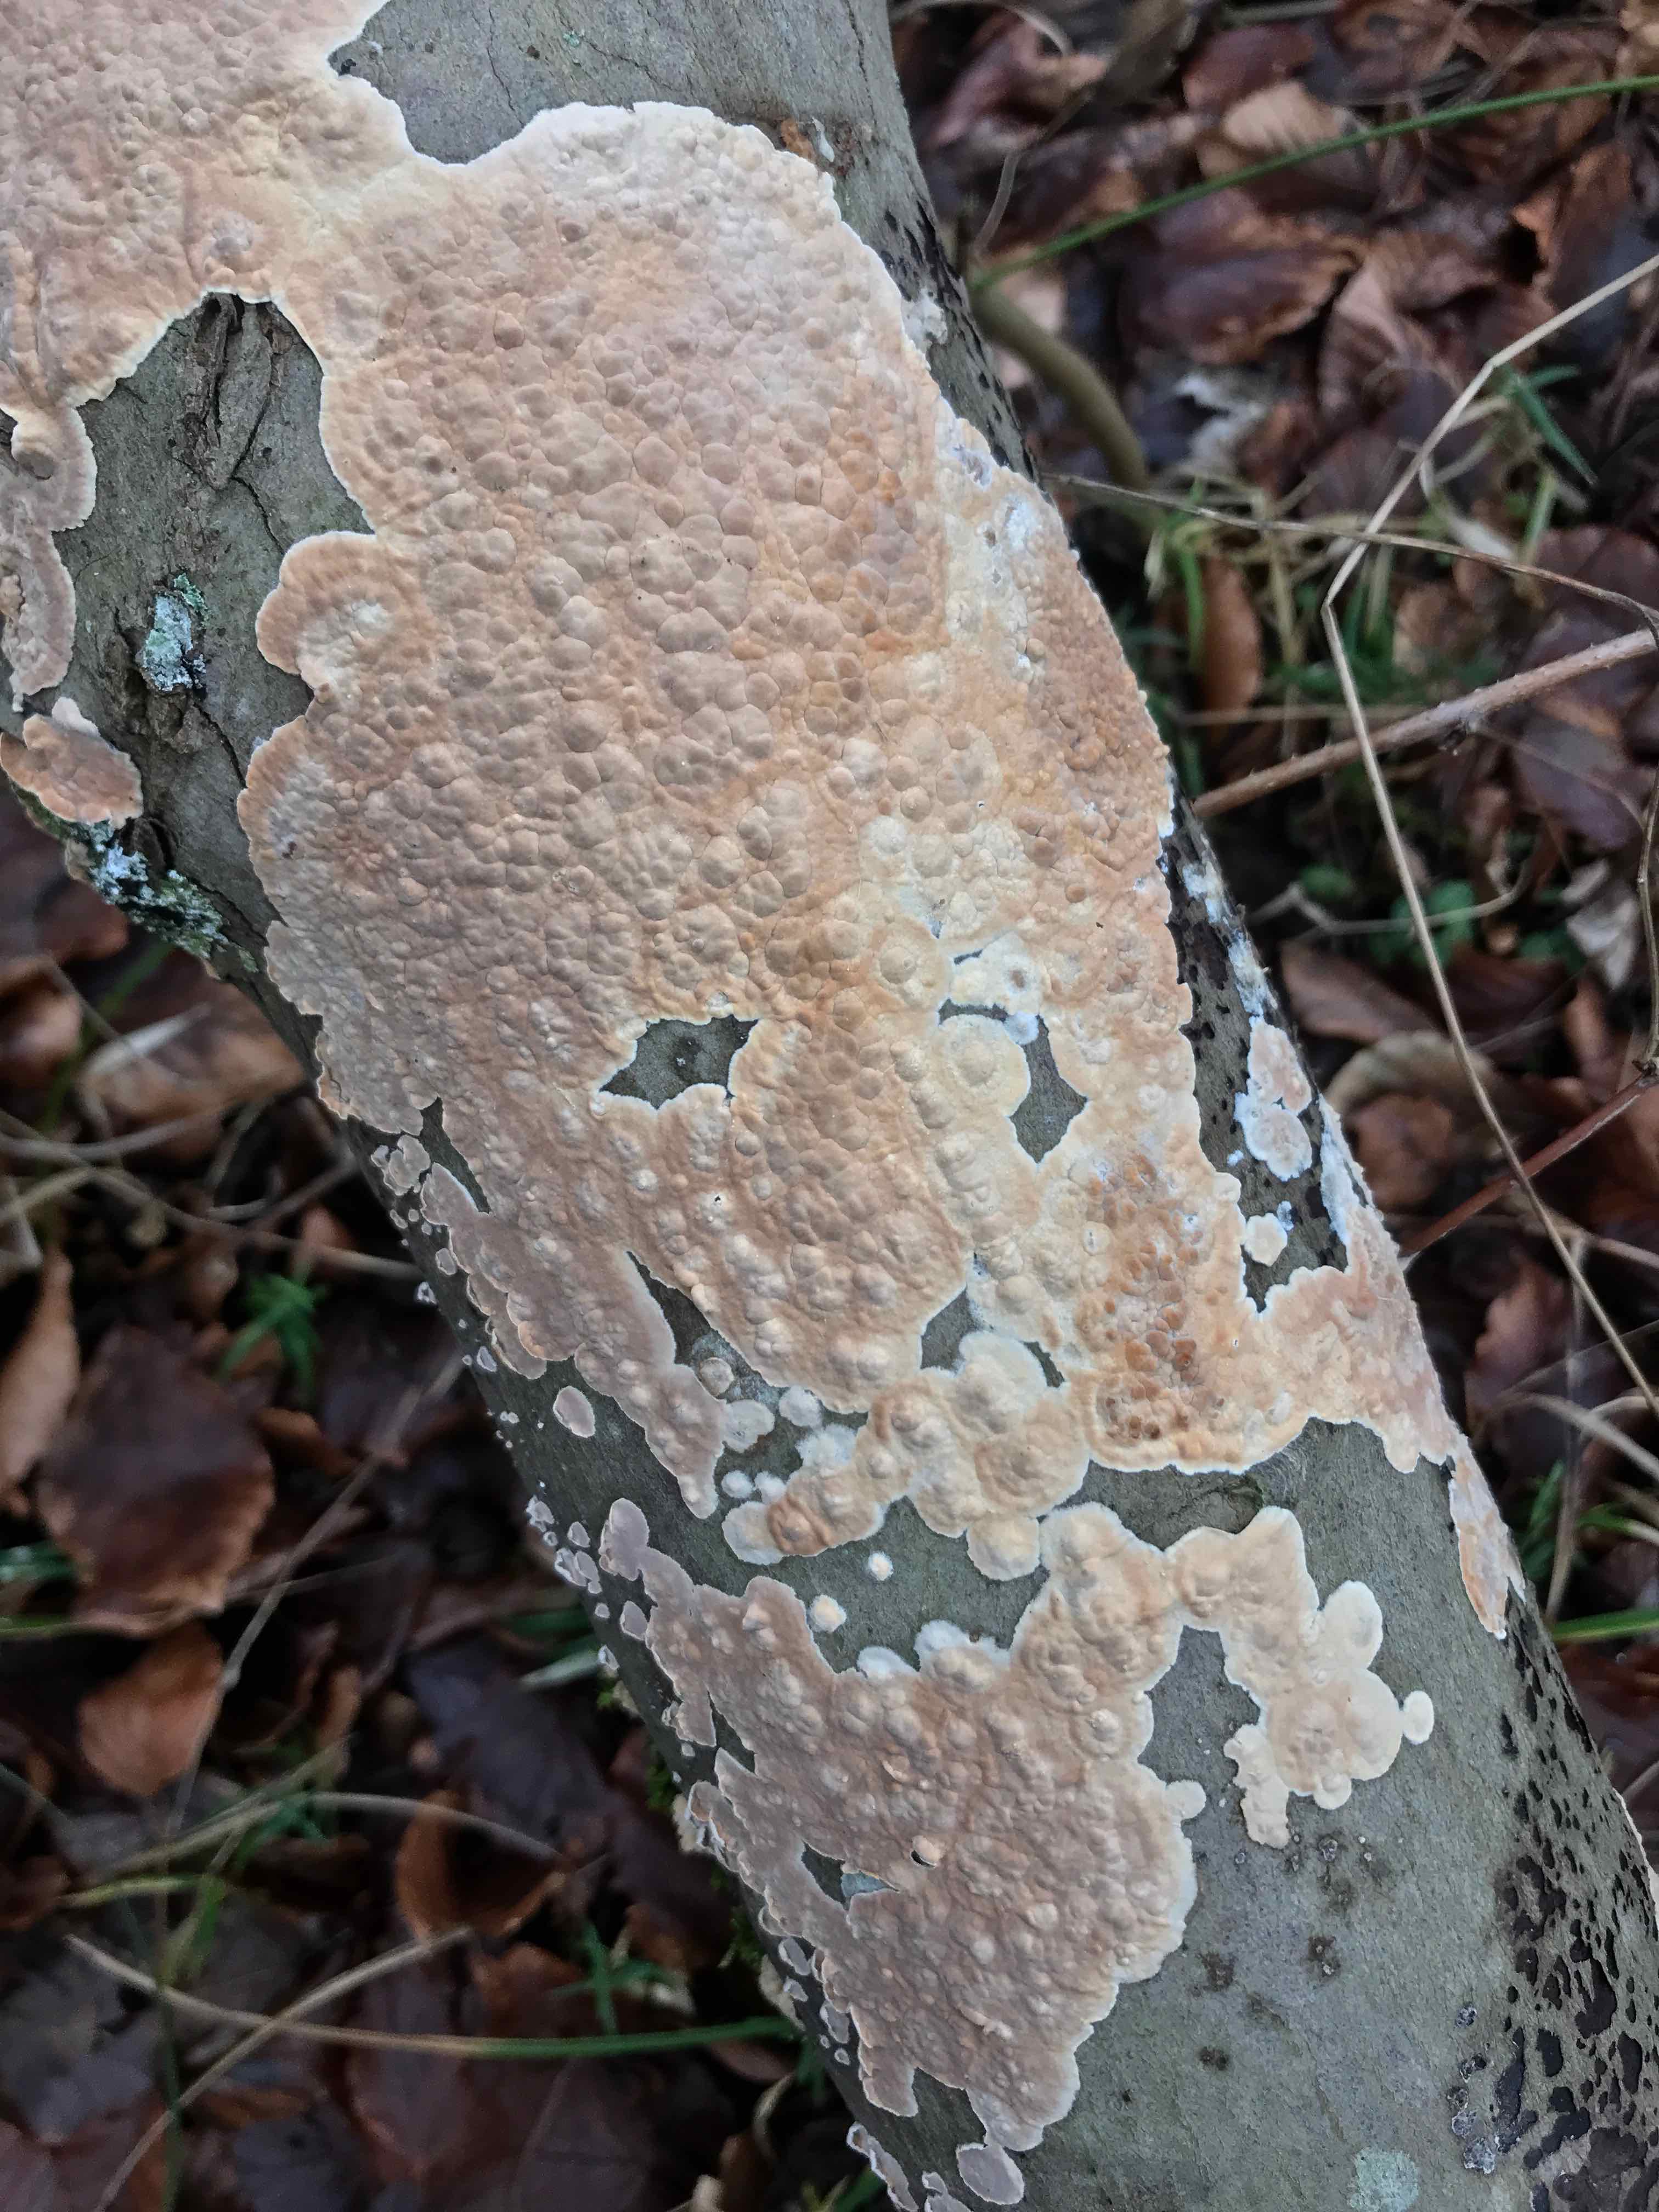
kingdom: Fungi
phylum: Basidiomycota
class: Agaricomycetes
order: Agaricales
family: Physalacriaceae
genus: Cylindrobasidium
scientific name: Cylindrobasidium evolvens
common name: sprækkehinde
